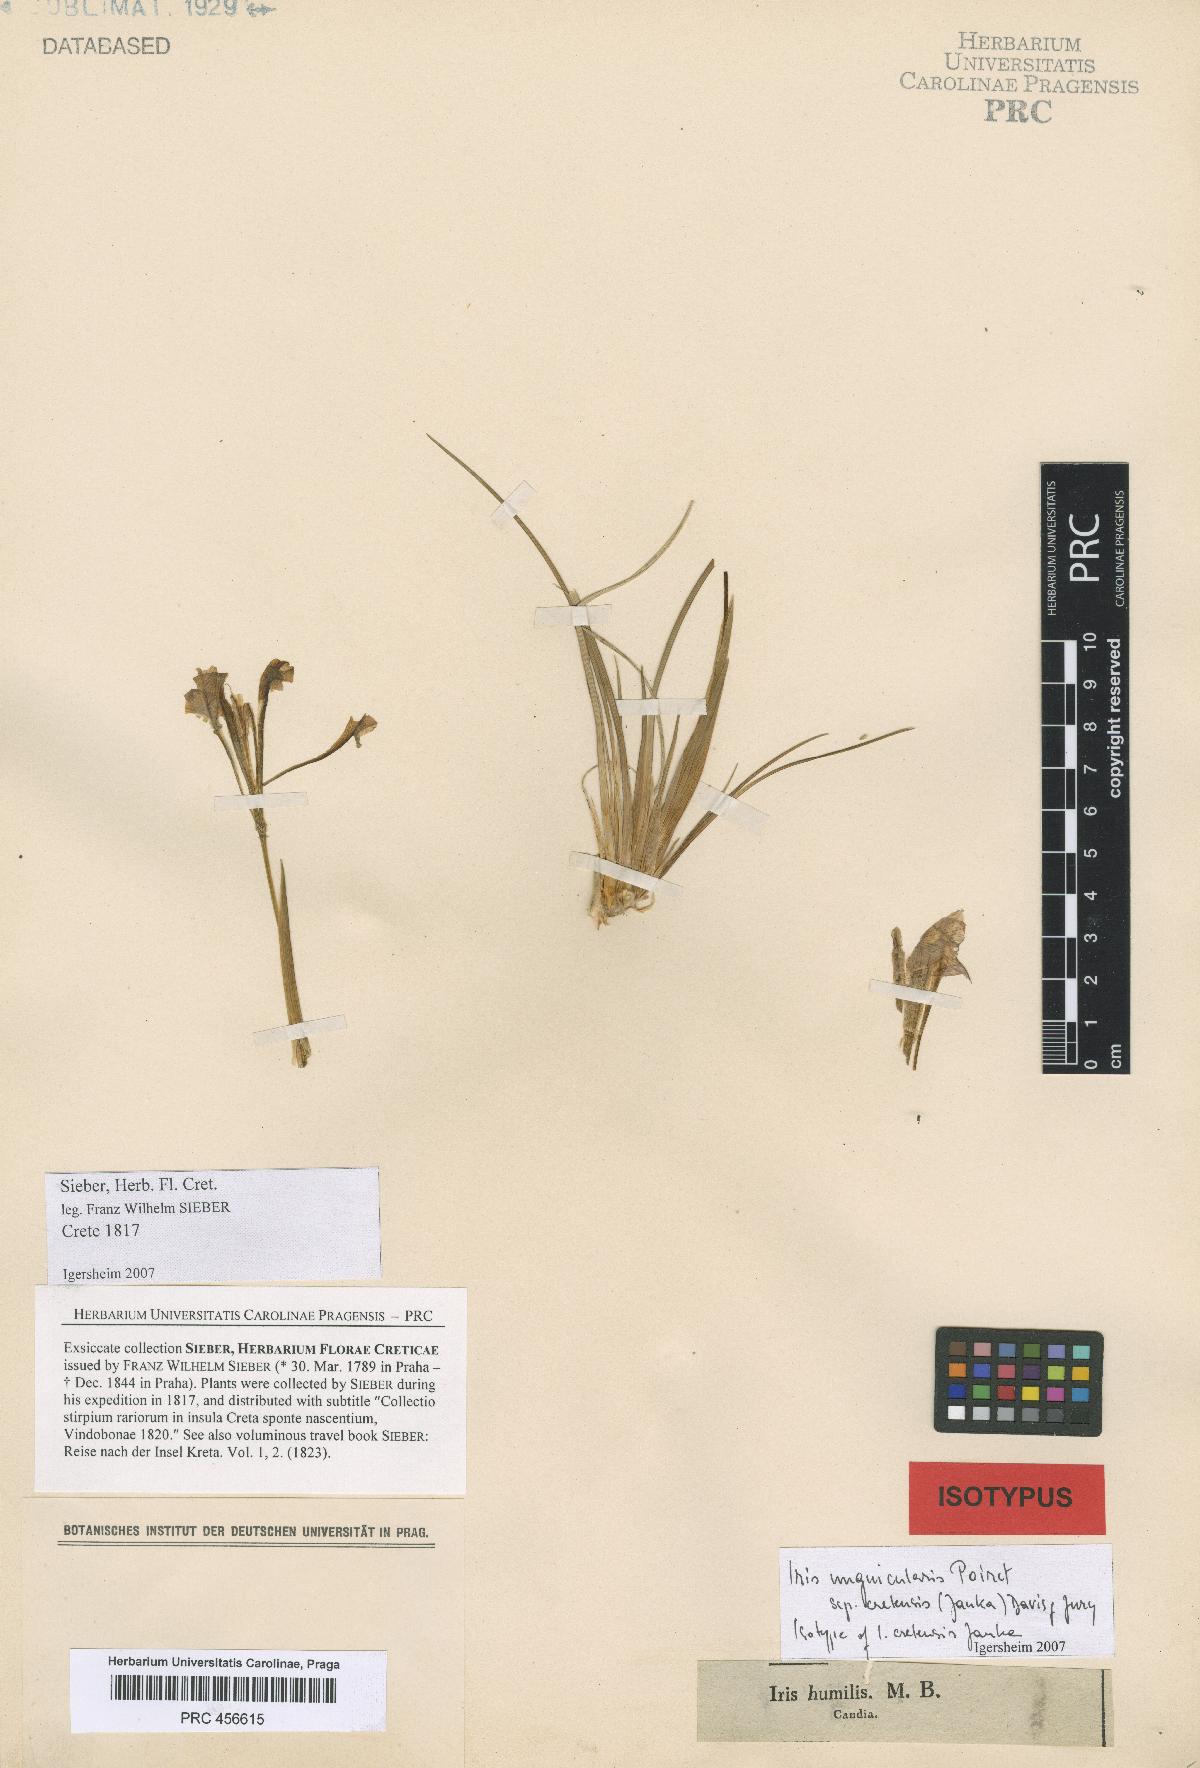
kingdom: Plantae
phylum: Tracheophyta
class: Liliopsida
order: Asparagales
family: Iridaceae
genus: Iris
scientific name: Iris unguicularis
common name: Algerian iris
